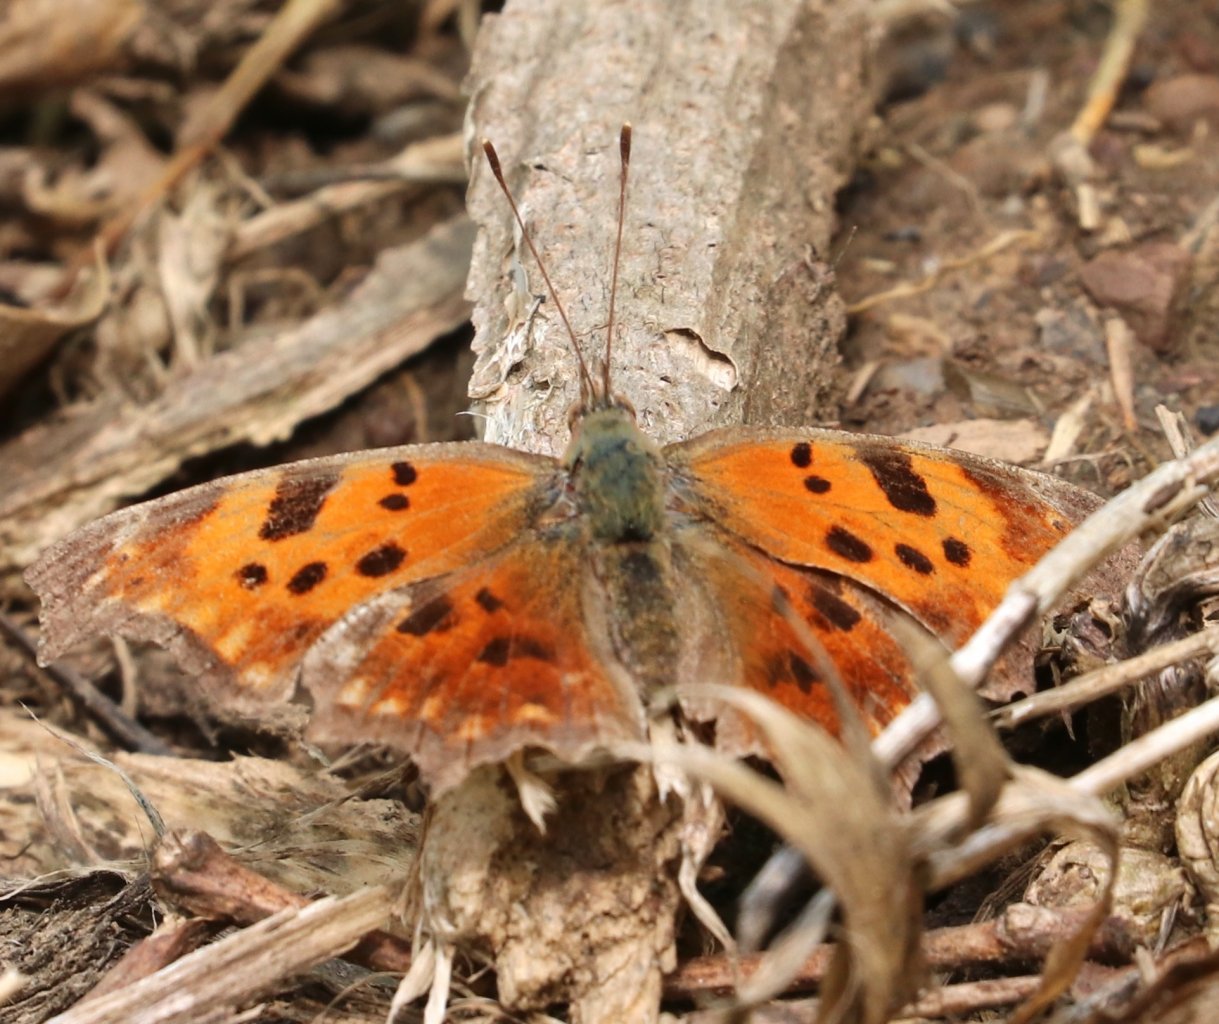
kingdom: Animalia
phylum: Arthropoda
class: Insecta
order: Lepidoptera
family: Nymphalidae
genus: Polygonia
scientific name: Polygonia comma
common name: Eastern Comma
